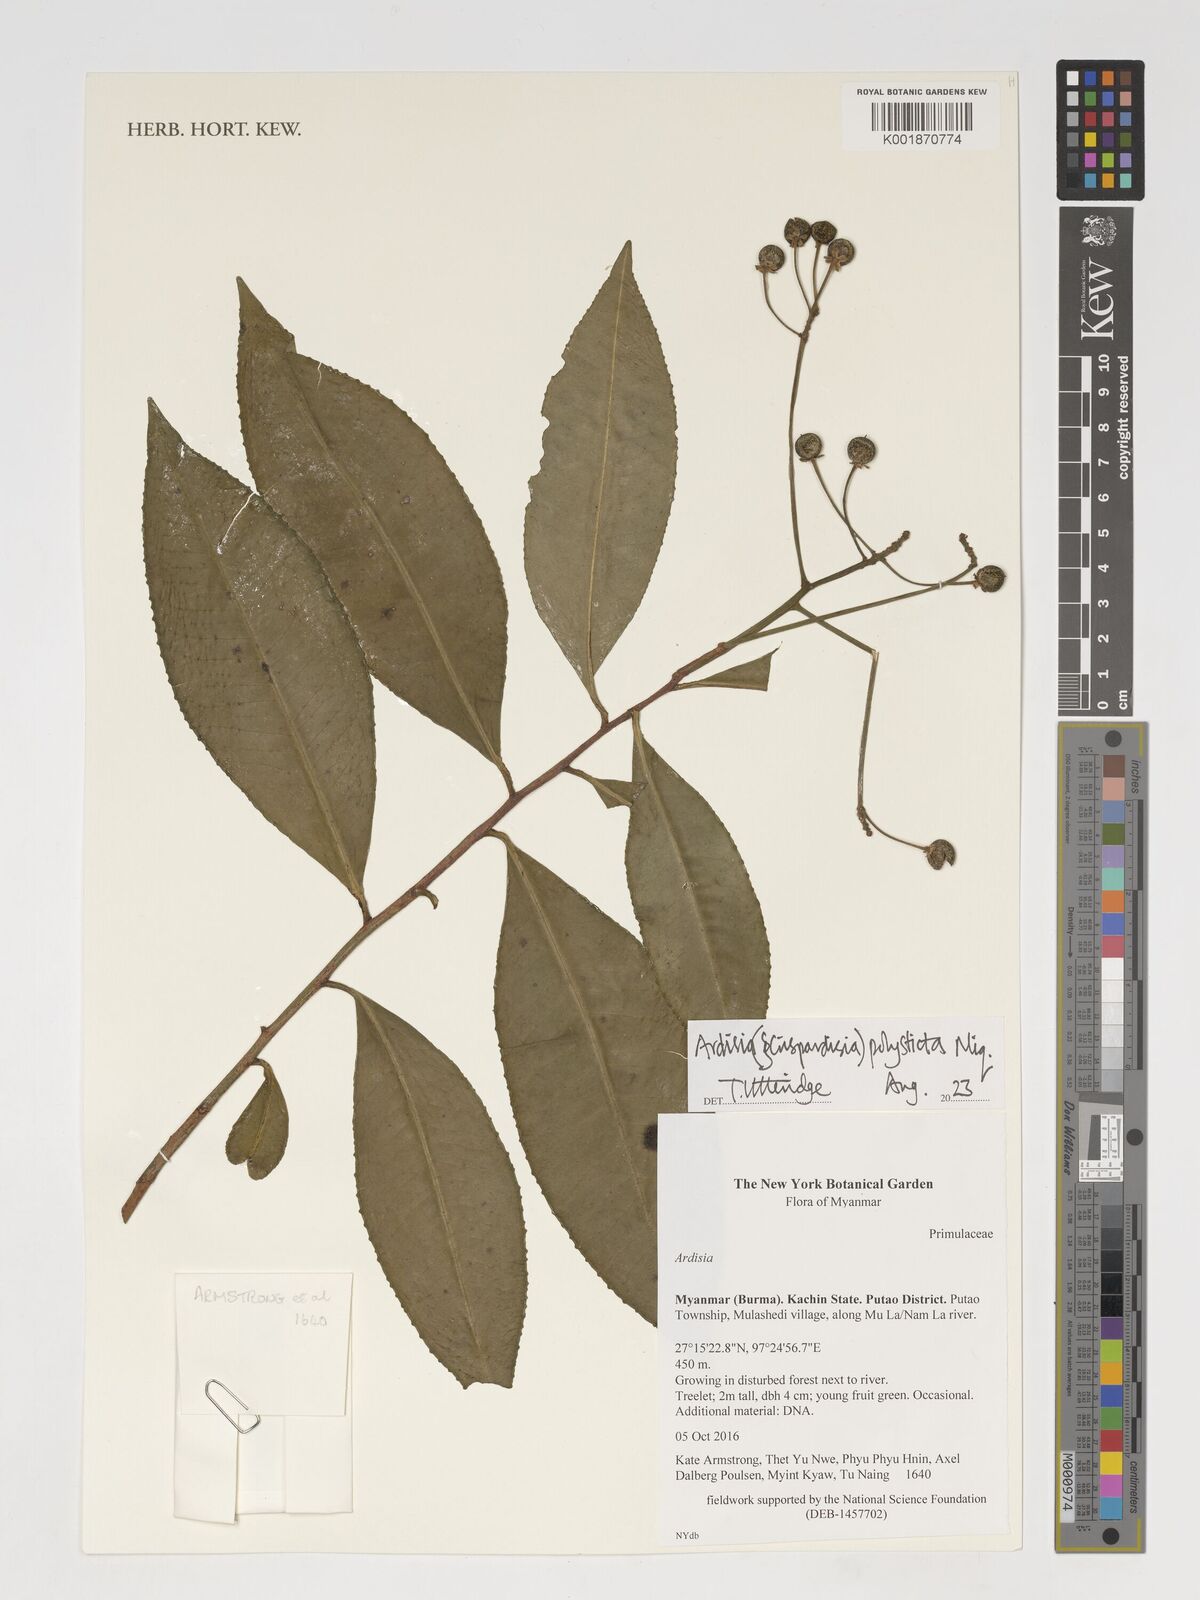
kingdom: Plantae
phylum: Tracheophyta
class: Magnoliopsida
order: Ericales
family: Primulaceae
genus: Ardisia
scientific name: Ardisia polysticta
